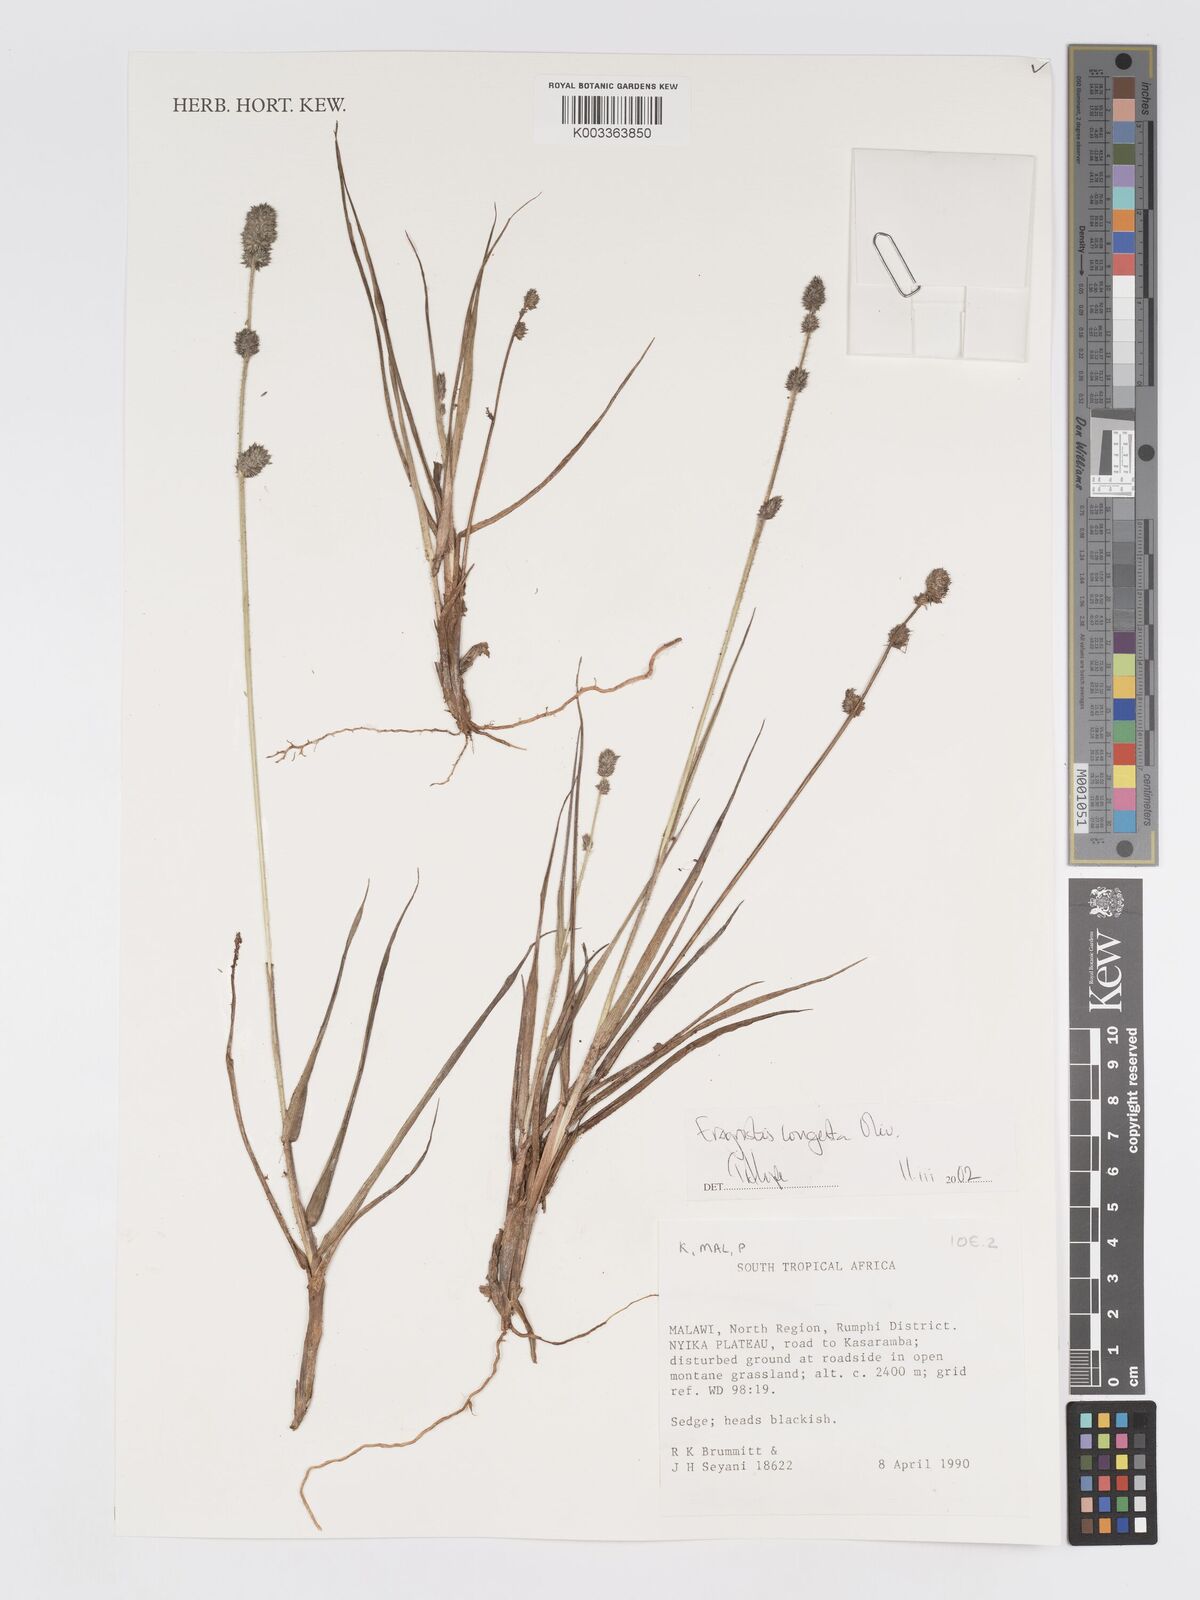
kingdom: Plantae
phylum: Tracheophyta
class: Liliopsida
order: Poales
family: Poaceae
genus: Eragrostis
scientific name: Eragrostis congesta
